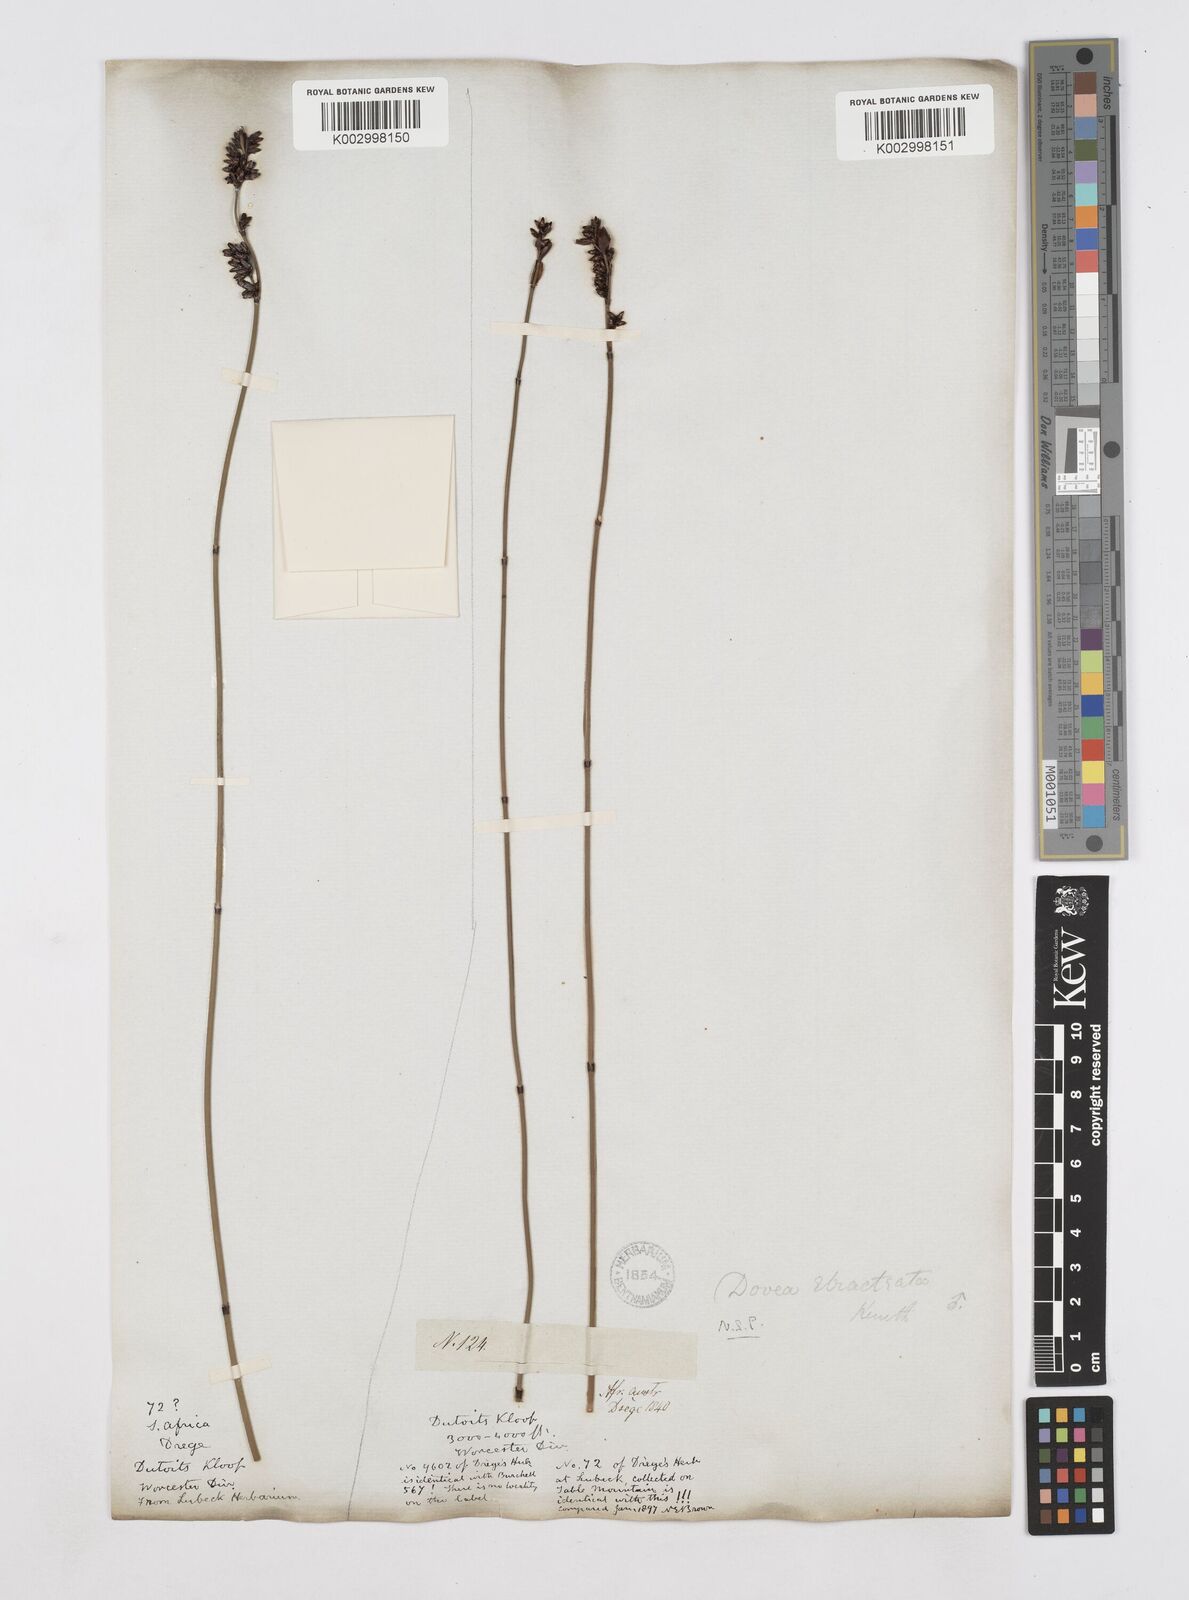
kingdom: Plantae
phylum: Tracheophyta
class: Liliopsida
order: Poales
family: Restionaceae
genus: Elegia
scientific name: Elegia hookeriana
